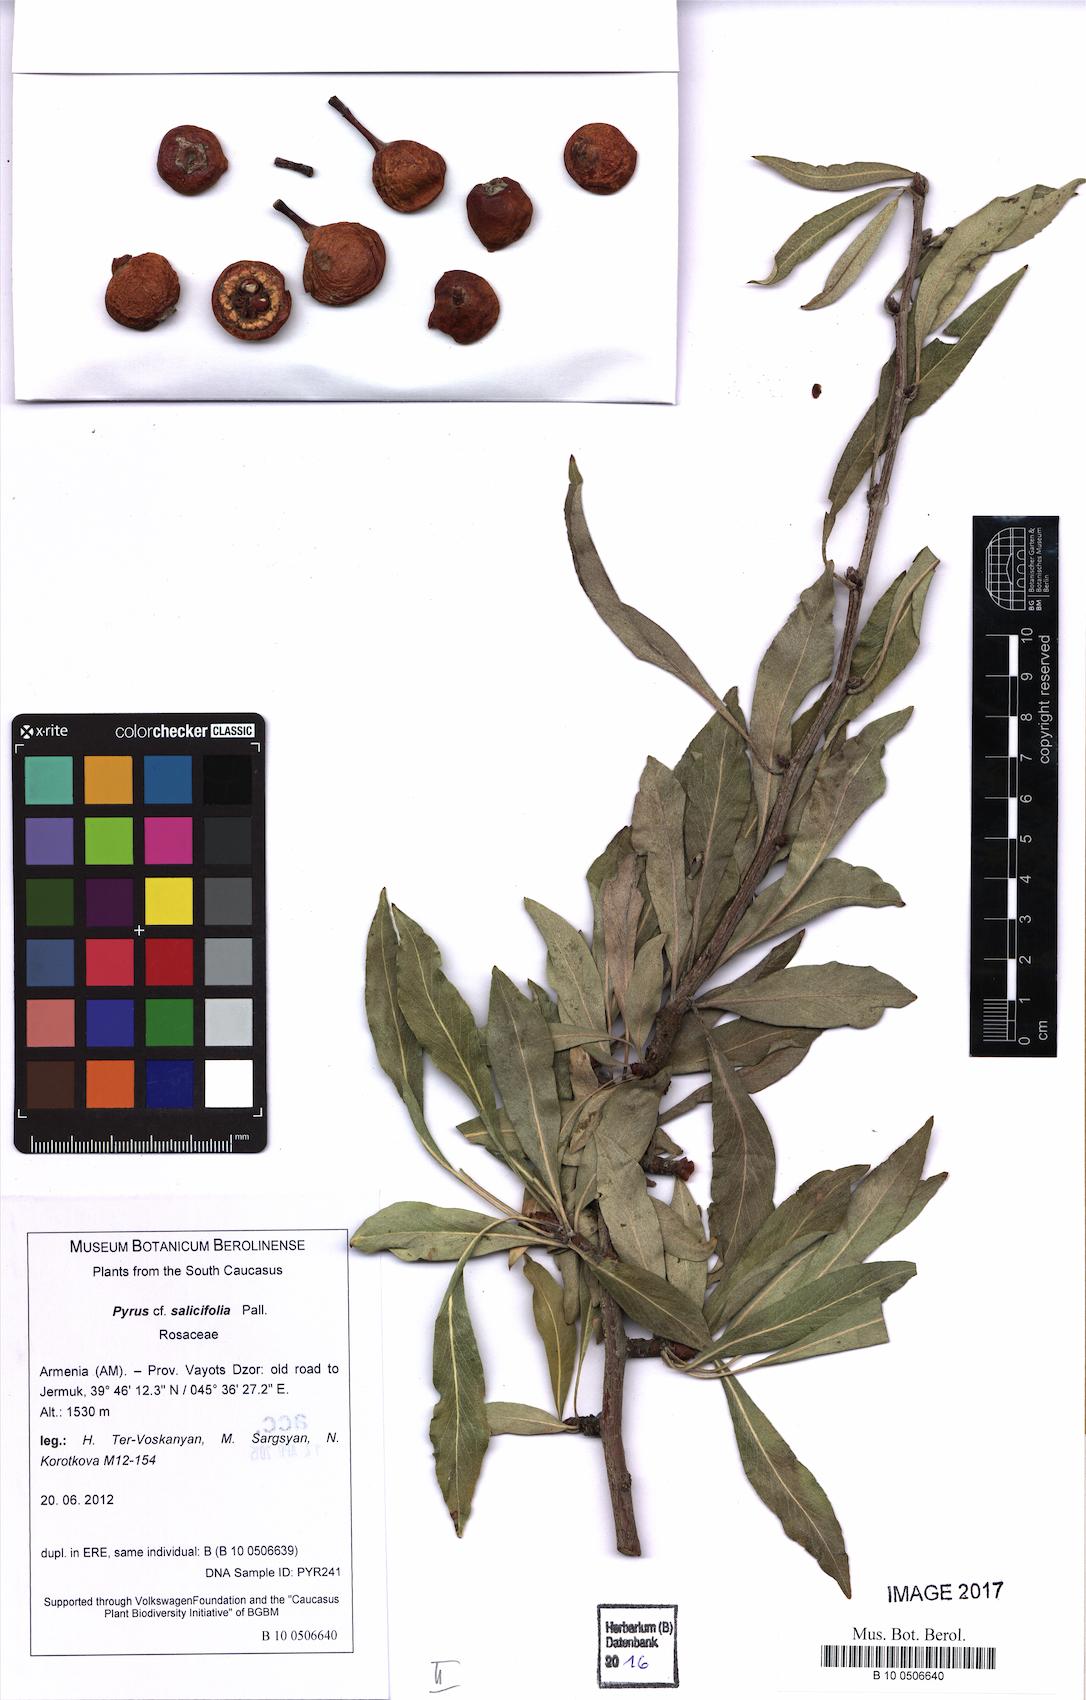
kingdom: Plantae
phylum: Tracheophyta
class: Magnoliopsida
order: Rosales
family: Rosaceae
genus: Pyrus
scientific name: Pyrus communis
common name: Pear
